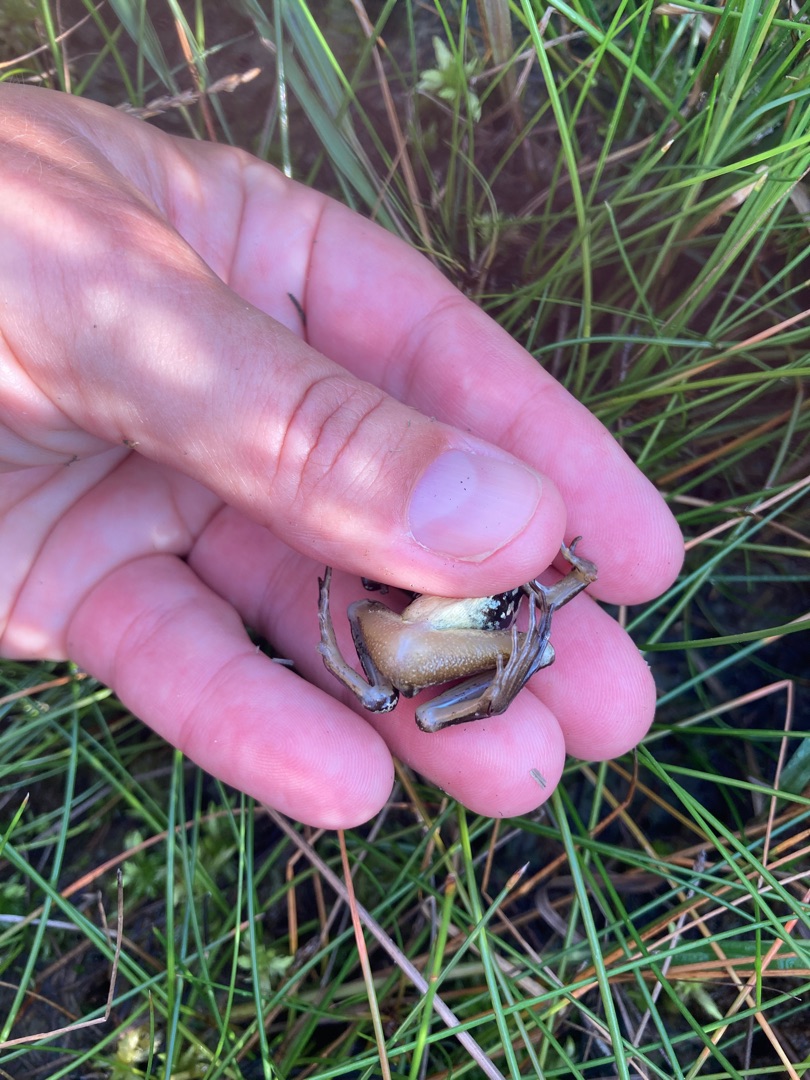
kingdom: Animalia
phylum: Chordata
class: Amphibia
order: Anura
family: Ranidae
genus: Rana
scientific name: Rana arvalis
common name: Spidssnudet frø
